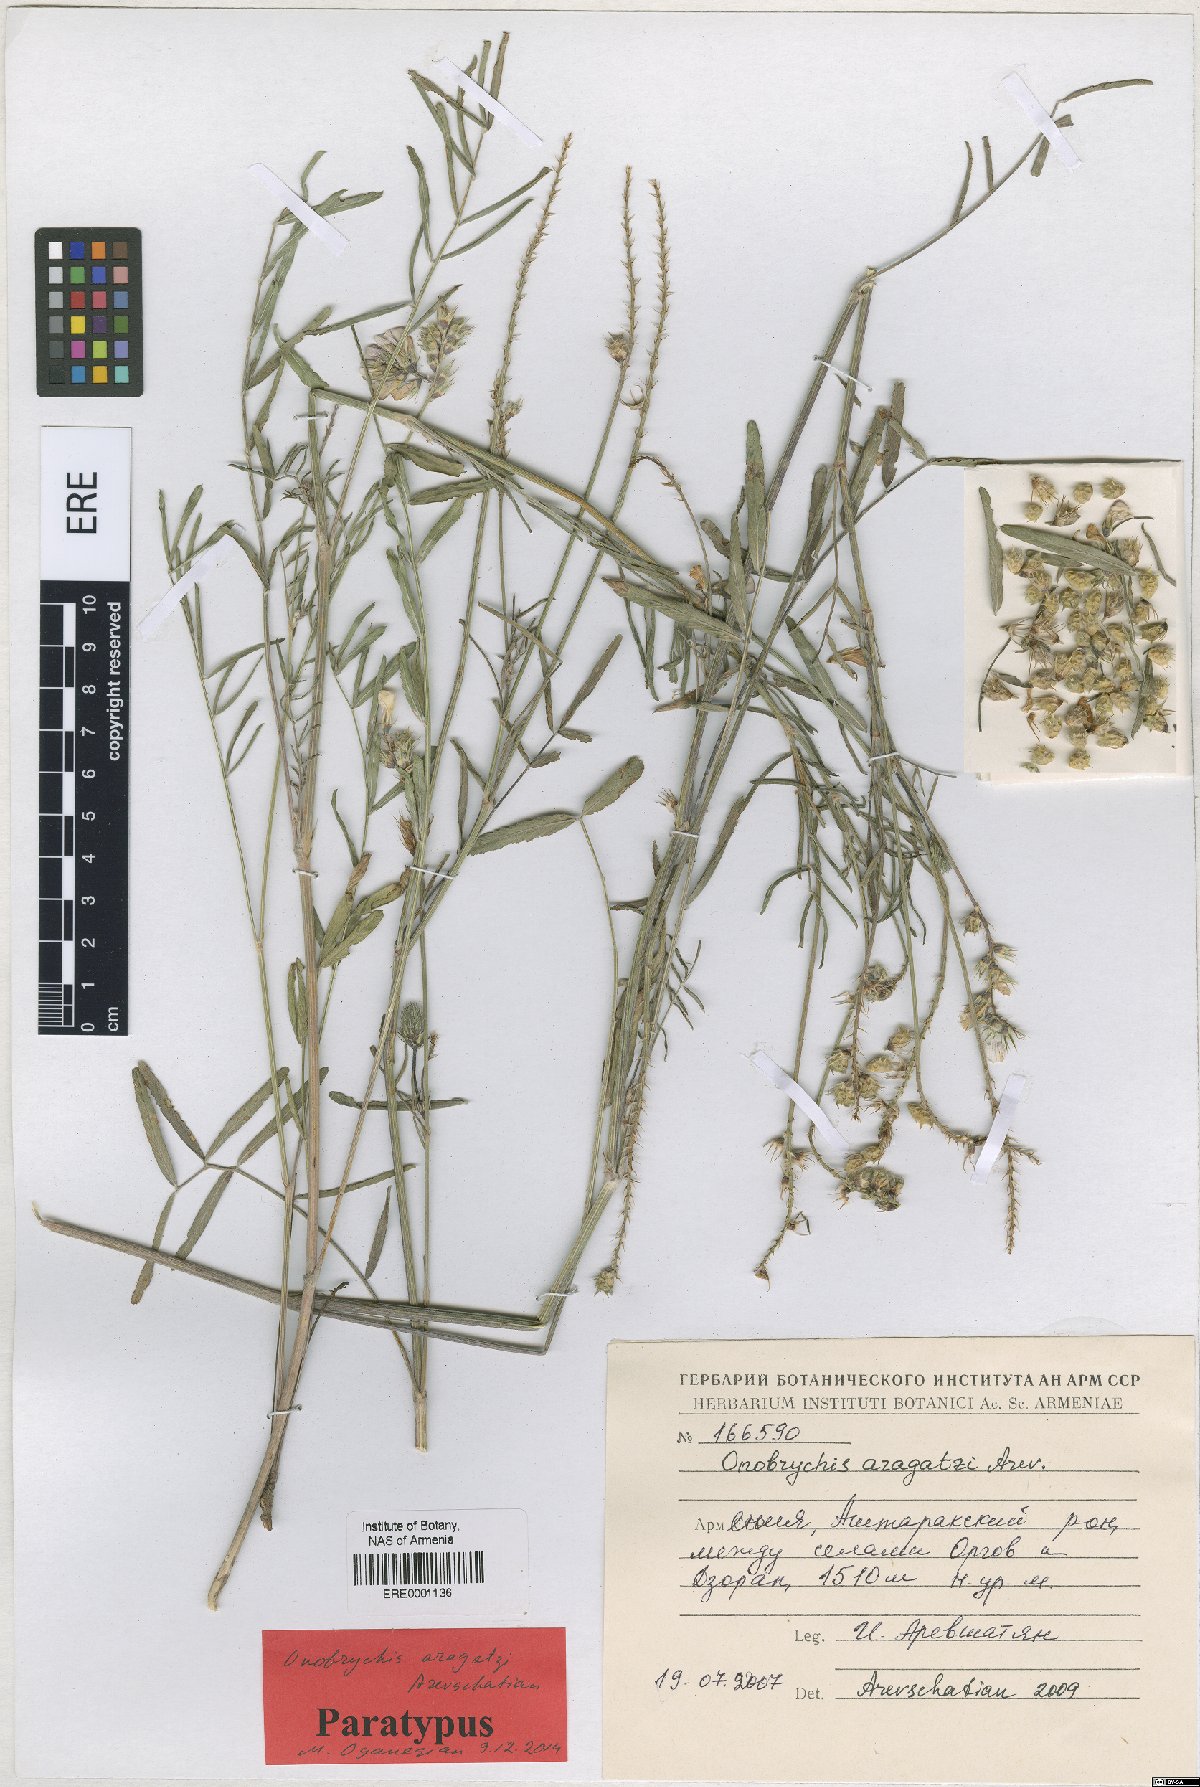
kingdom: Plantae
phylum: Tracheophyta
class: Magnoliopsida
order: Fabales
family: Fabaceae
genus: Onobrychis
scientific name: Onobrychis aragatzi
